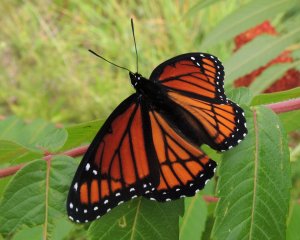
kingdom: Animalia
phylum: Arthropoda
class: Insecta
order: Lepidoptera
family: Nymphalidae
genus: Limenitis
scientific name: Limenitis archippus
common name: Viceroy
